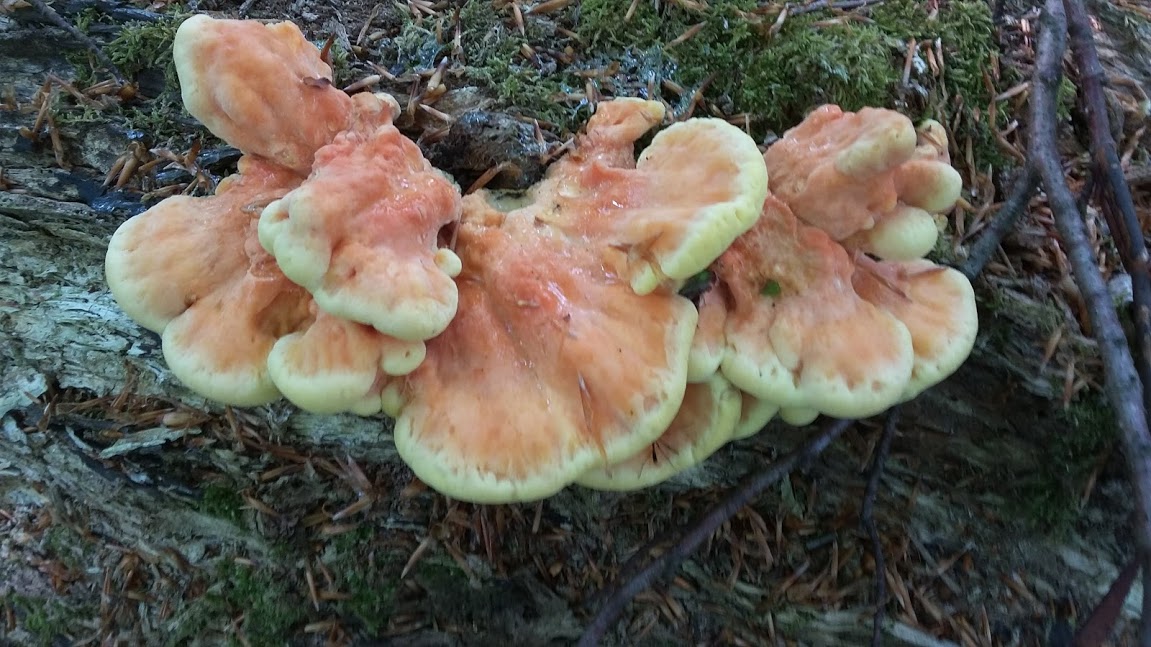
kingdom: Fungi
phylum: Basidiomycota
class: Agaricomycetes
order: Polyporales
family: Laetiporaceae
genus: Laetiporus
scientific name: Laetiporus sulphureus
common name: svovlporesvamp
